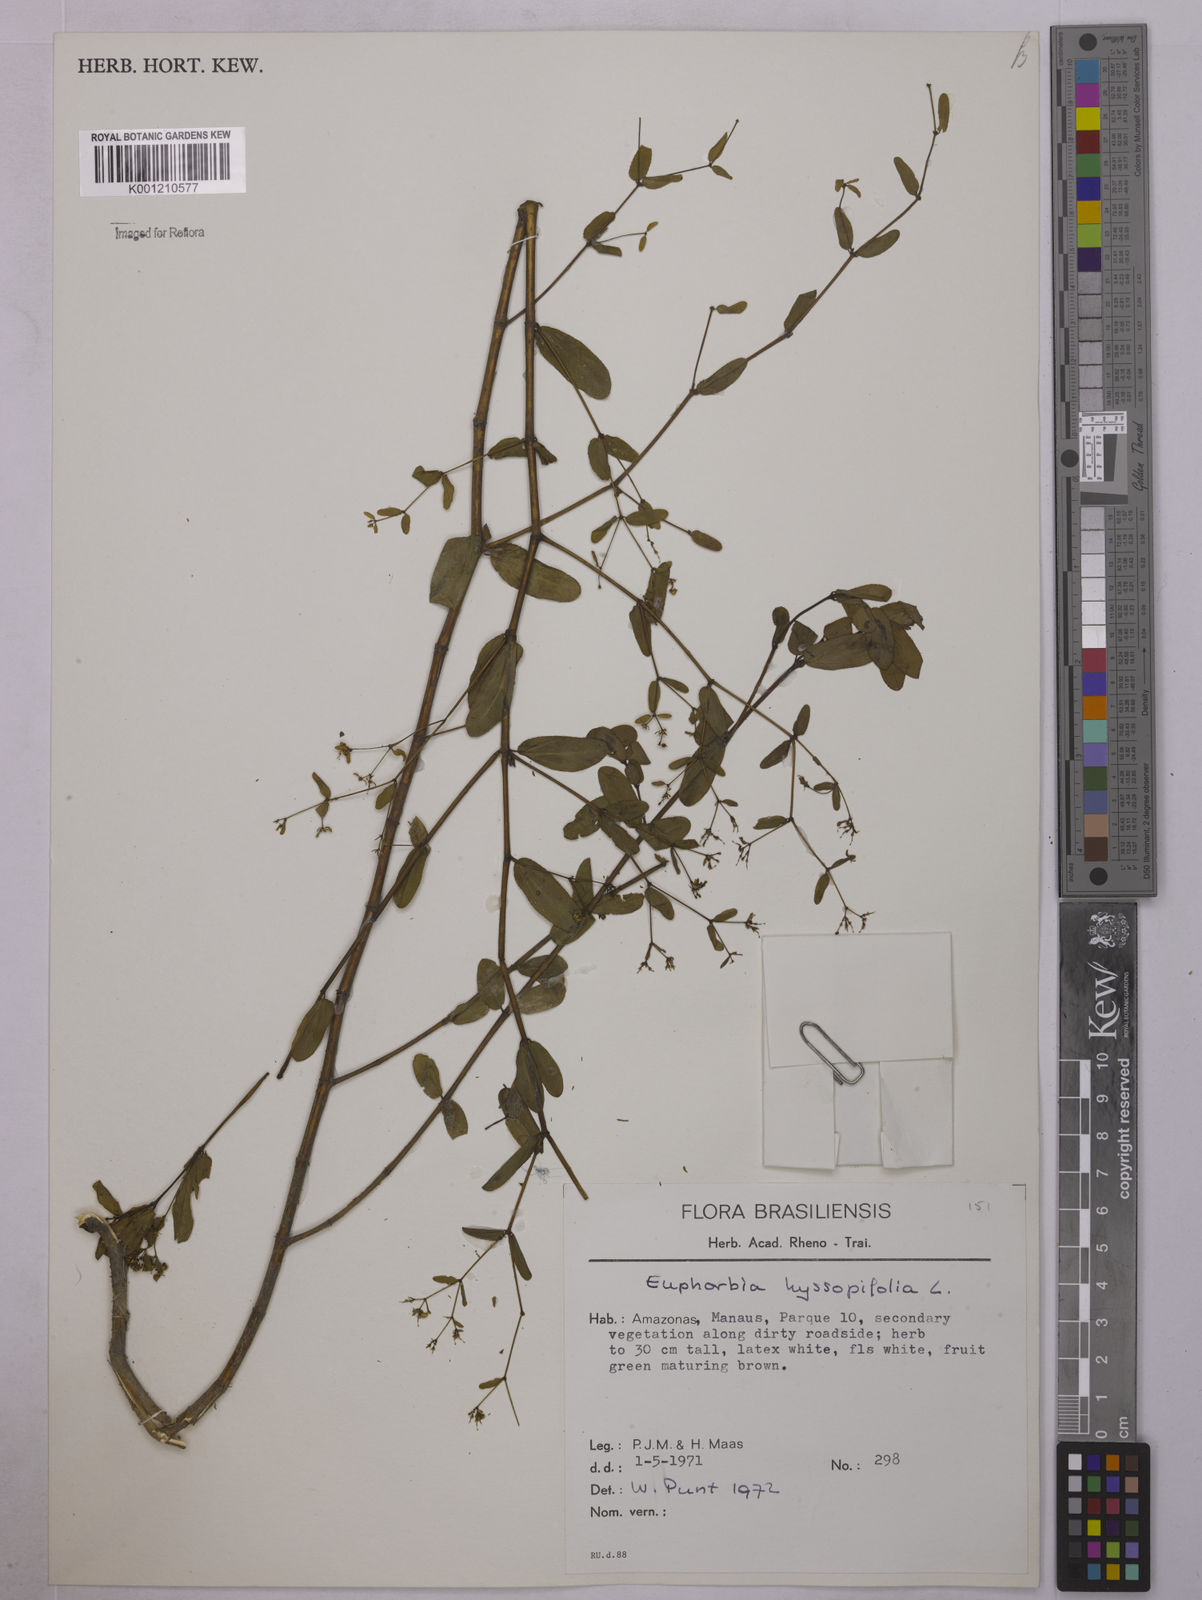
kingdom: Plantae
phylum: Tracheophyta
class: Magnoliopsida
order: Malpighiales
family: Euphorbiaceae
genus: Euphorbia
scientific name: Euphorbia hyssopifolia
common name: Hyssopleaf sandmat
